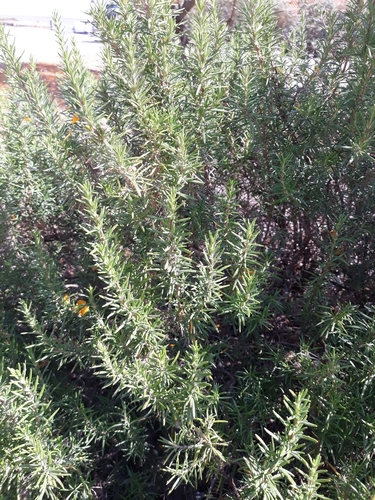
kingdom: Plantae
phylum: Tracheophyta
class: Magnoliopsida
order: Lamiales
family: Lamiaceae
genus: Salvia
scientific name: Salvia rosmarinus
